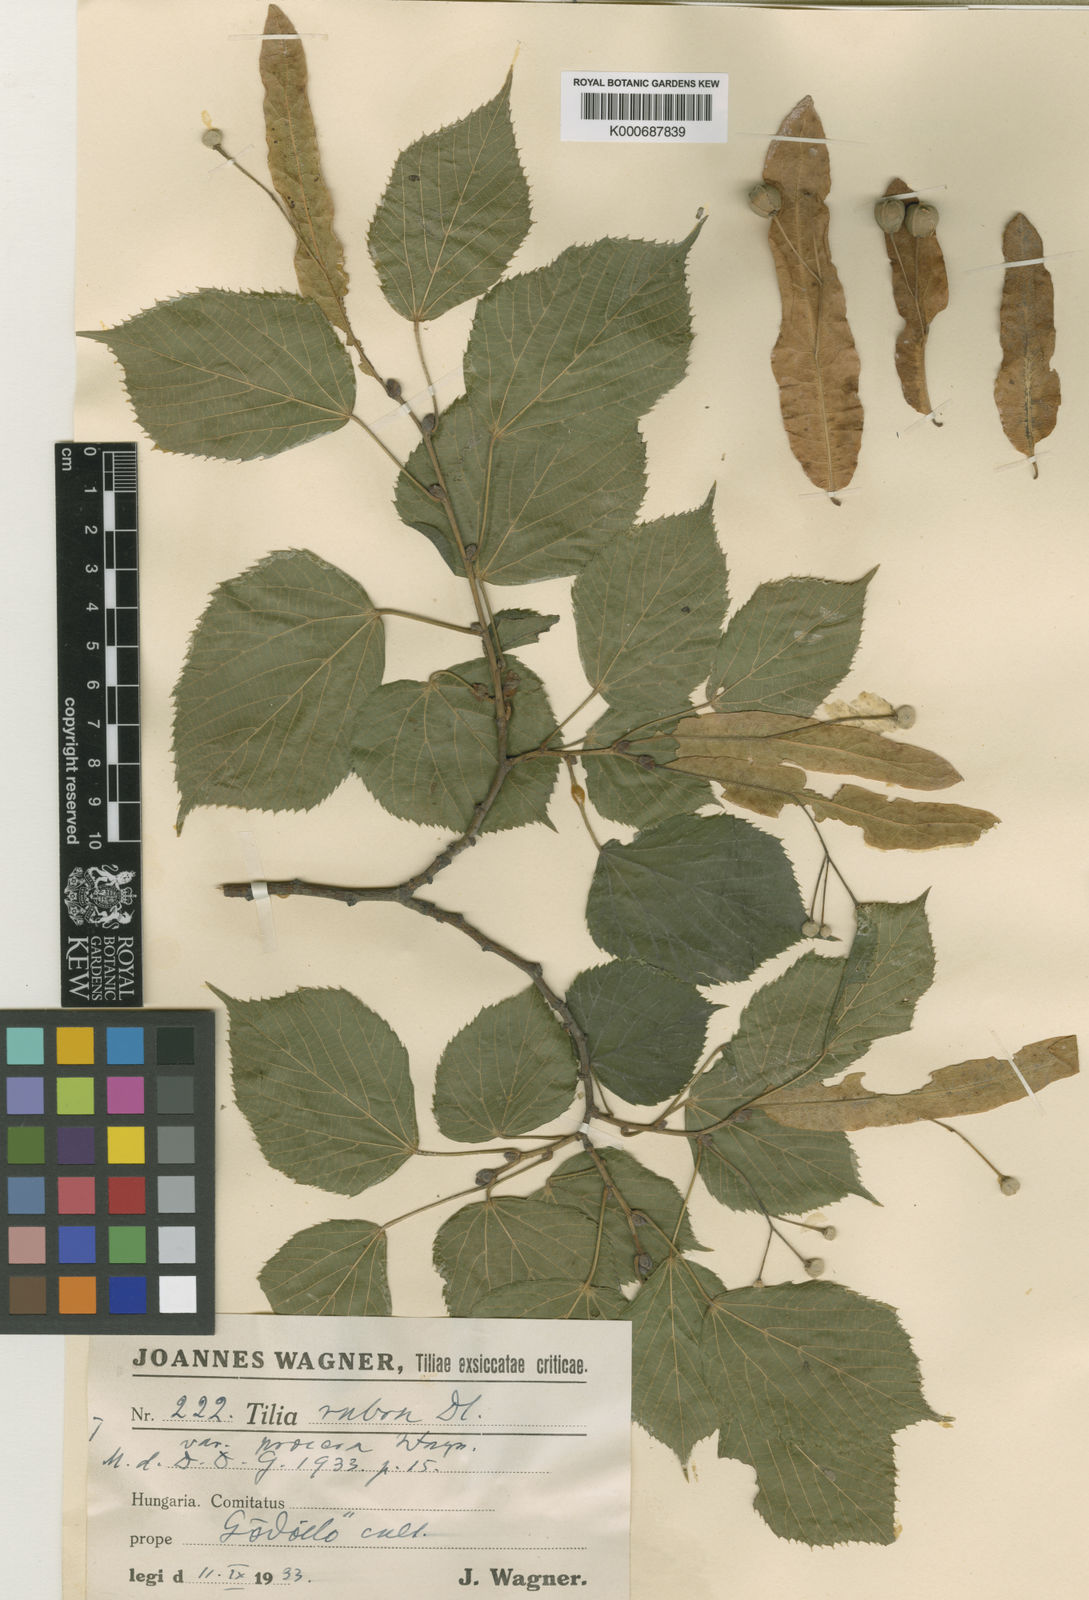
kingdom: Plantae
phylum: Tracheophyta
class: Magnoliopsida
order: Malvales
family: Malvaceae
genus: Tilia
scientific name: Tilia platyphyllos
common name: Large-leaved lime
